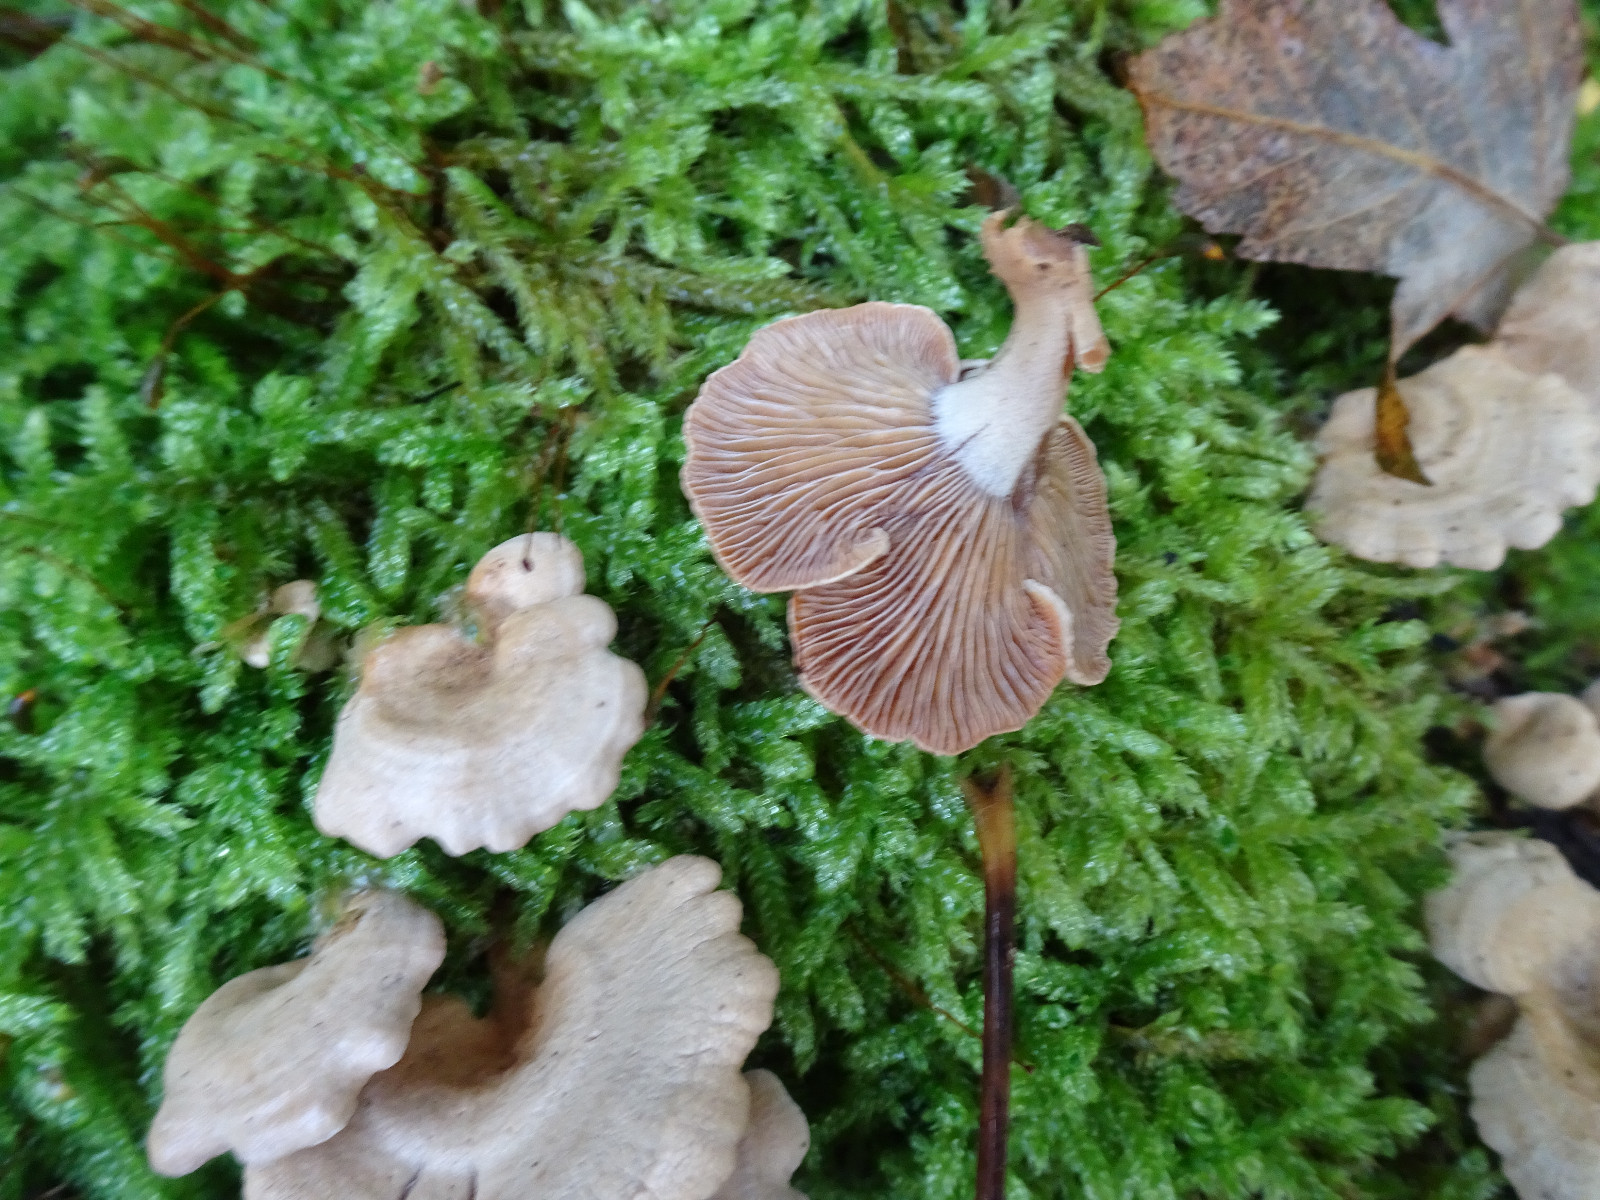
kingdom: Fungi
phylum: Basidiomycota
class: Agaricomycetes
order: Agaricales
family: Mycenaceae
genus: Panellus
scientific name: Panellus stipticus
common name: kliddet epaulethat
